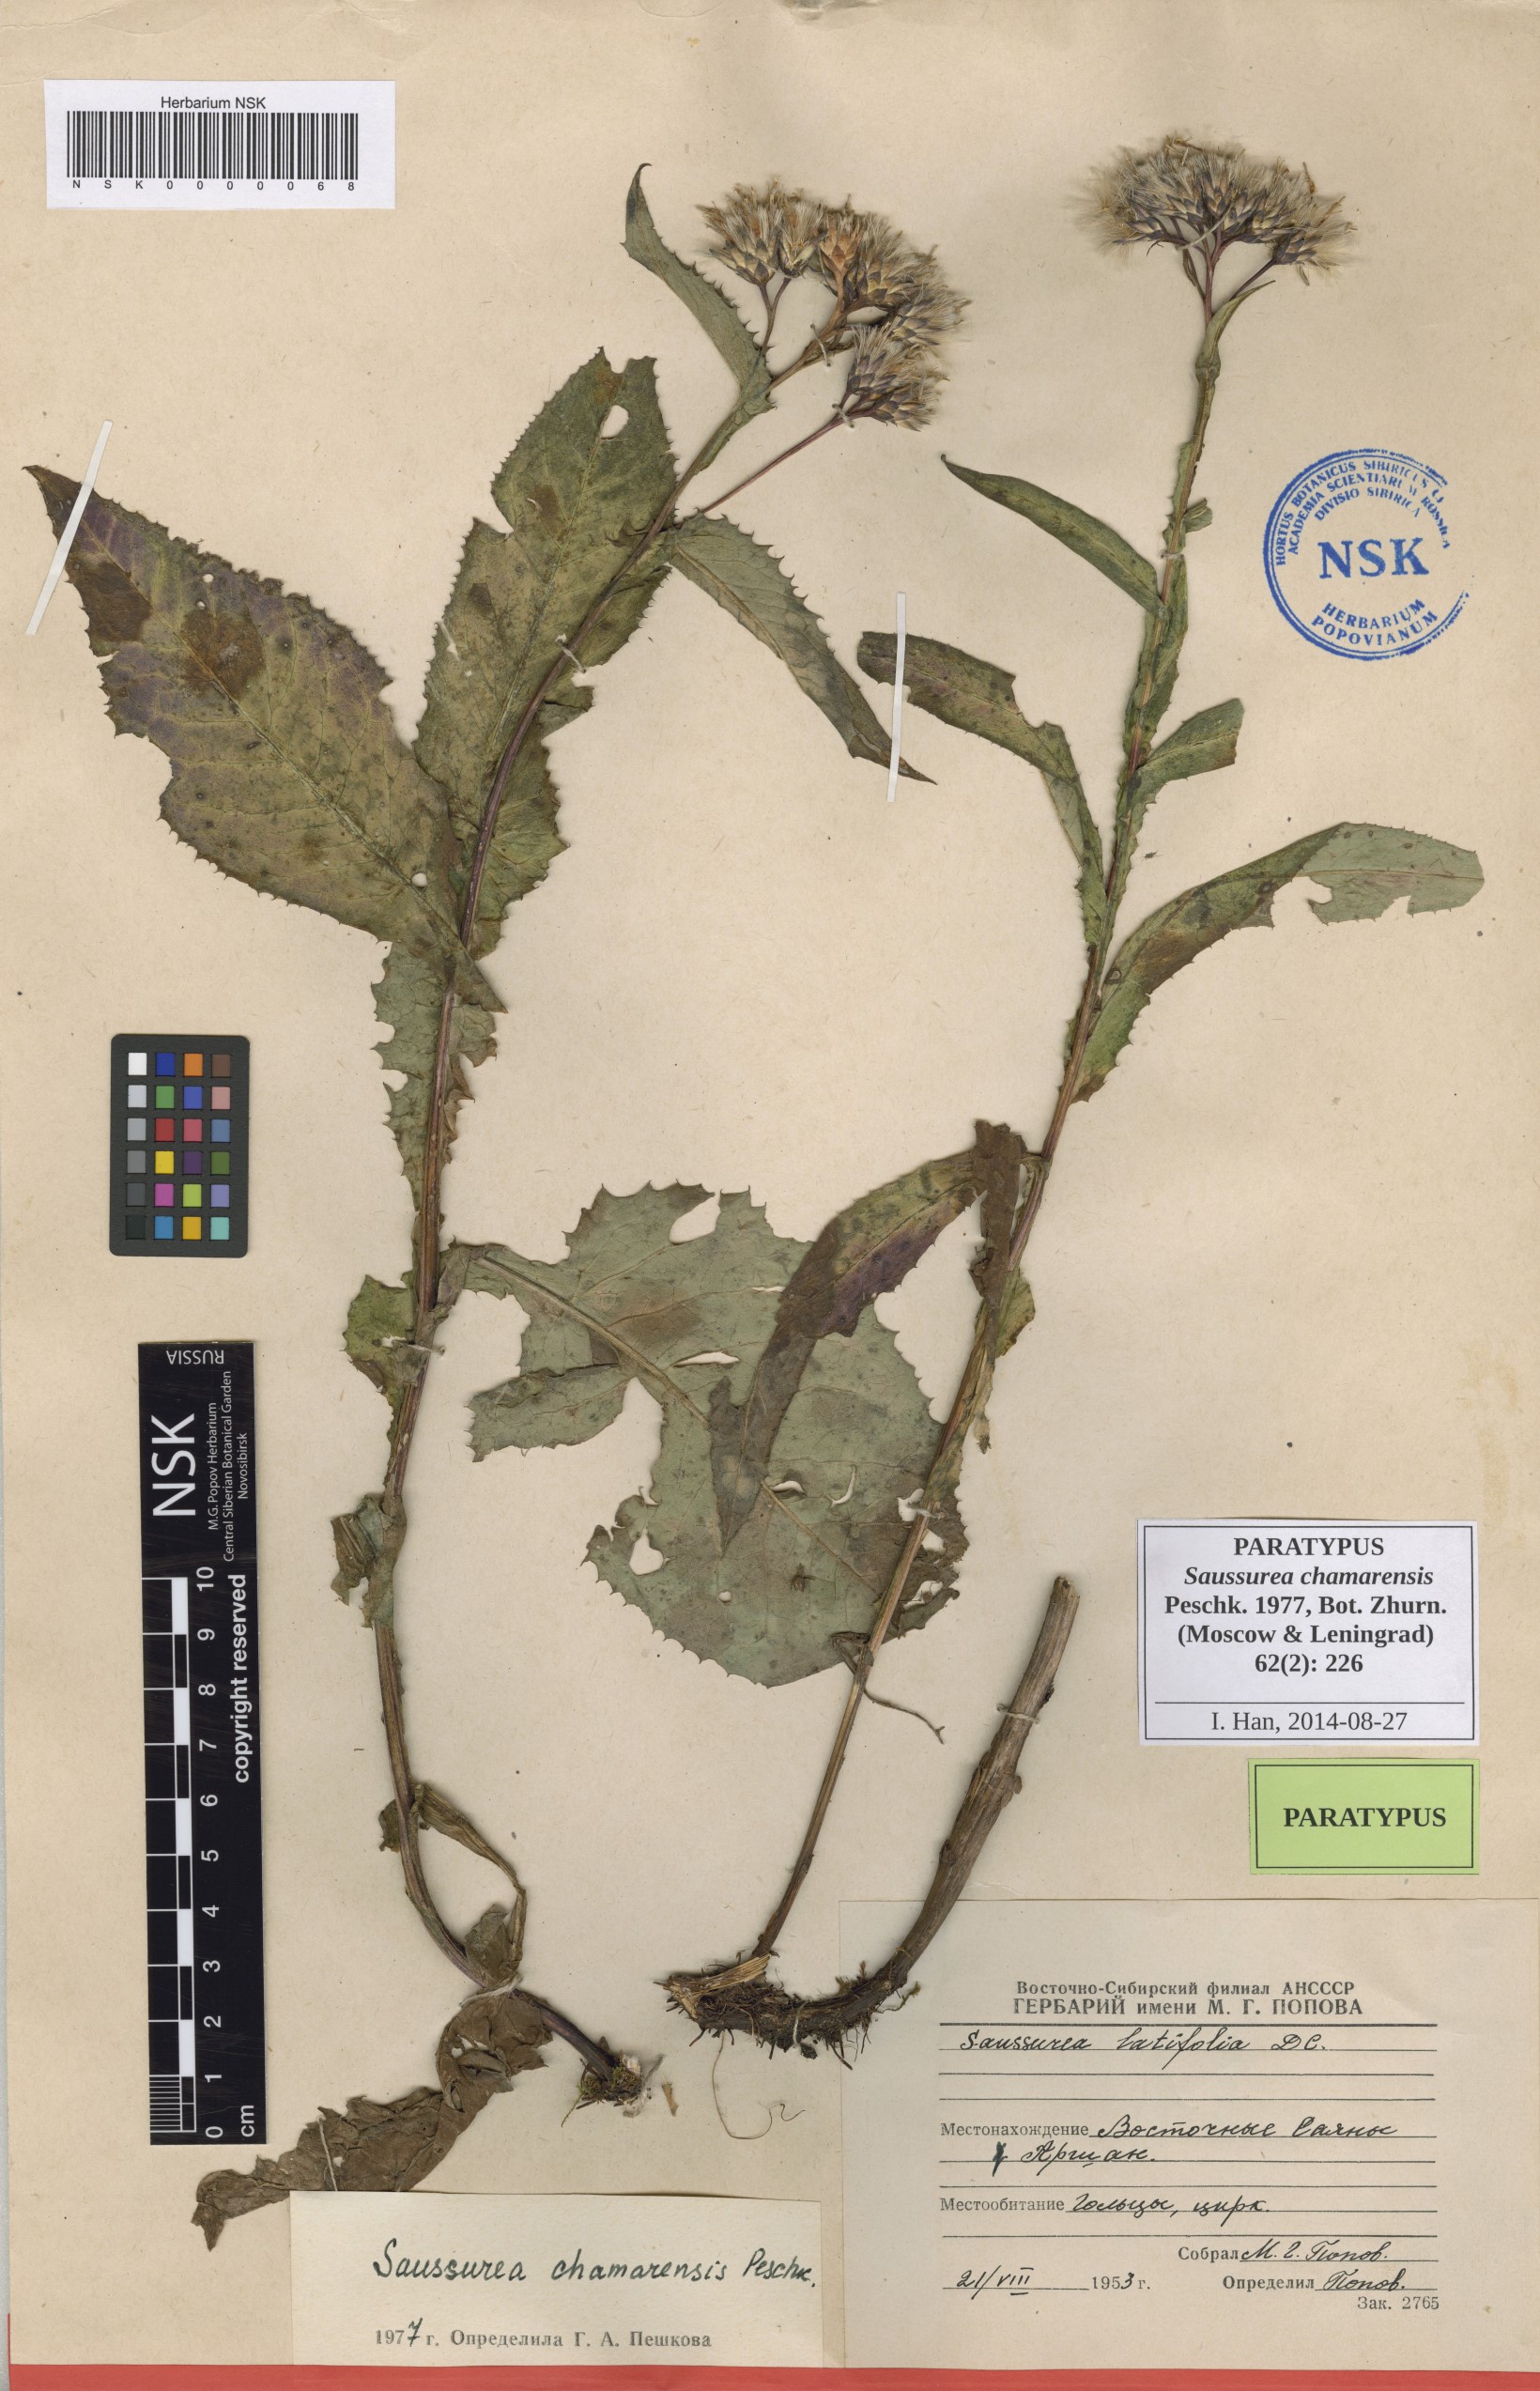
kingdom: Plantae
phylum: Tracheophyta
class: Magnoliopsida
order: Asterales
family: Asteraceae
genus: Saussurea
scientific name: Saussurea chamarensis
